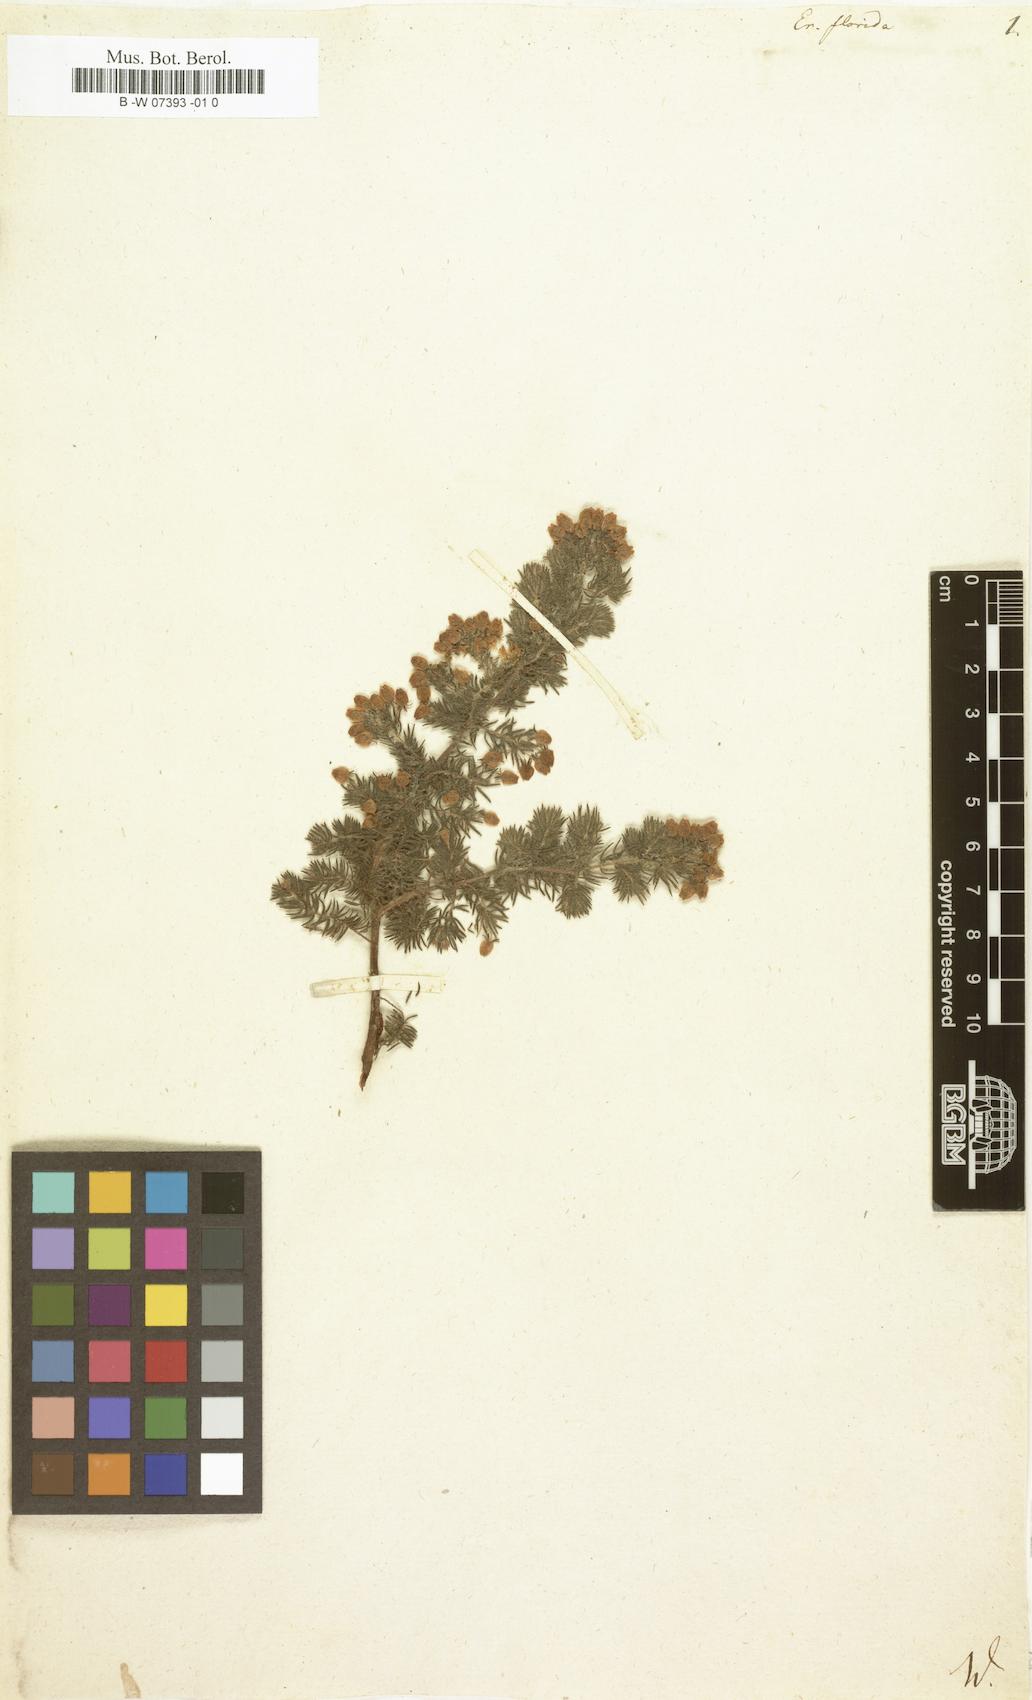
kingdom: Plantae
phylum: Tracheophyta
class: Magnoliopsida
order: Ericales
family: Ericaceae
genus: Erica
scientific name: Erica bergiana
